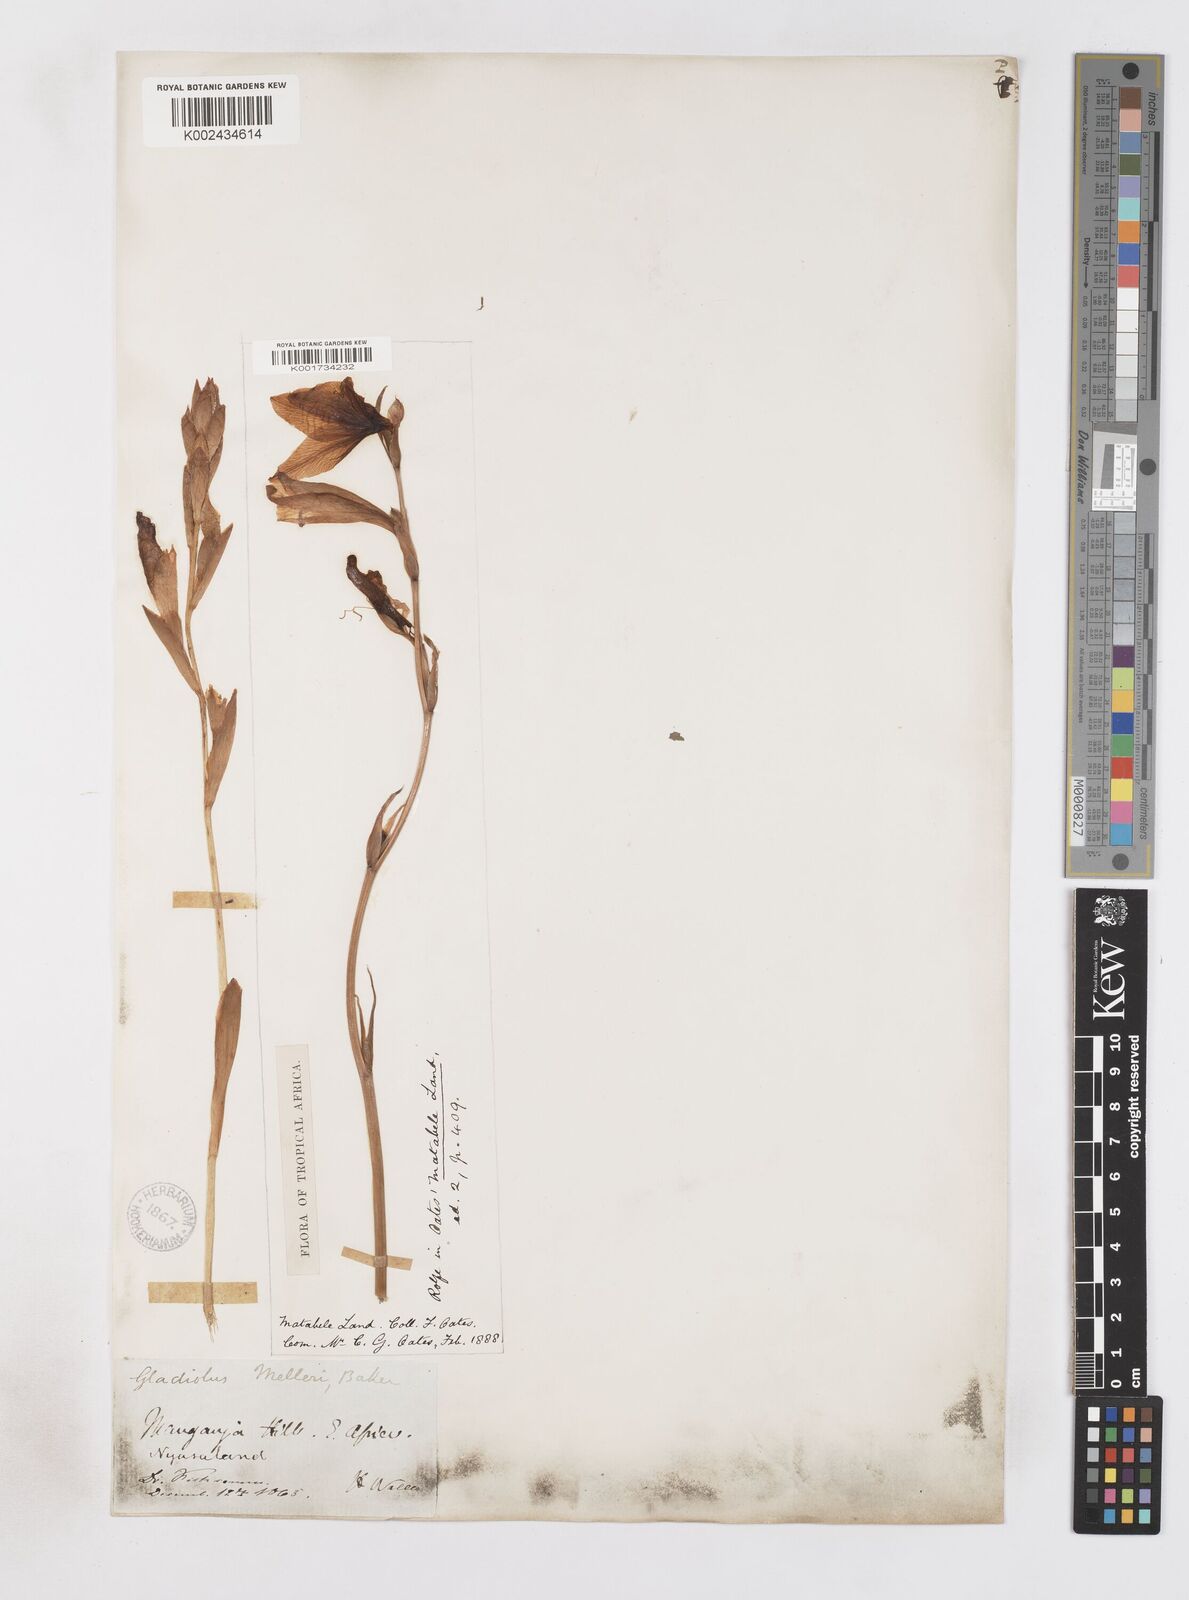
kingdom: Plantae
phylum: Tracheophyta
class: Liliopsida
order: Asparagales
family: Iridaceae
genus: Gladiolus
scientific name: Gladiolus melleri
